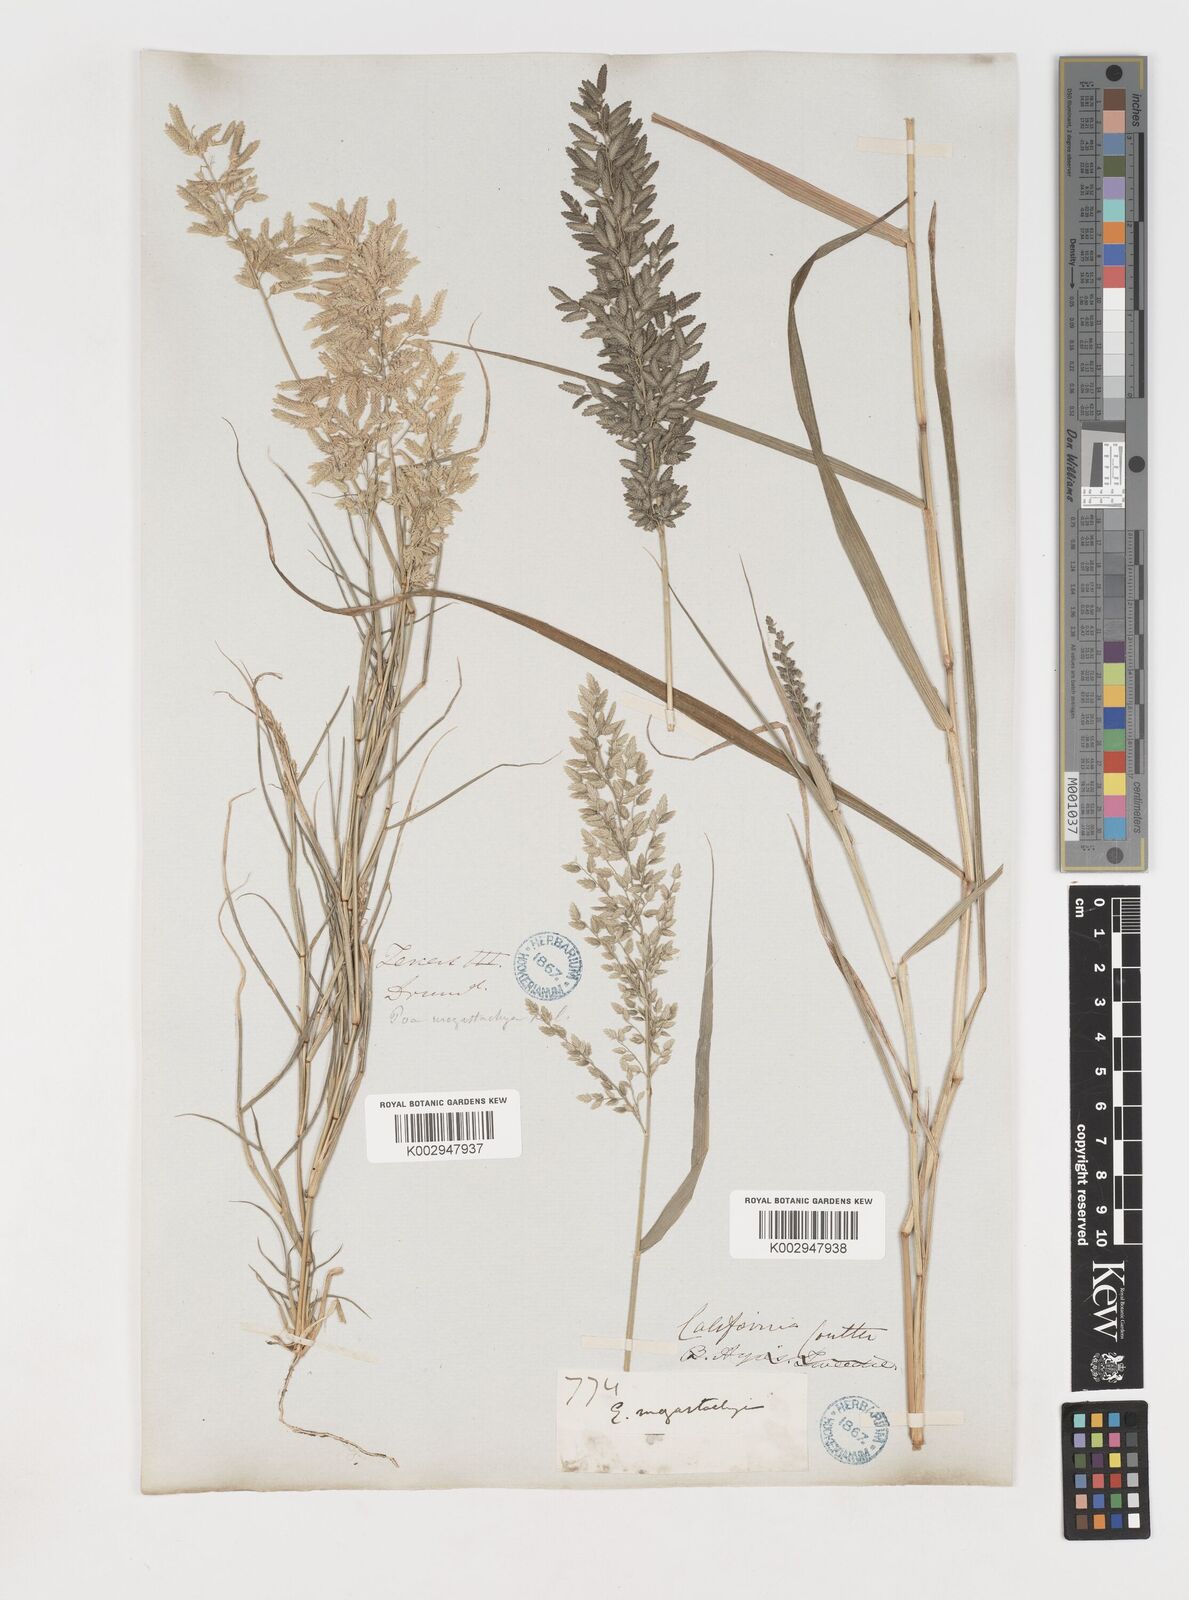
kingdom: Plantae
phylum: Tracheophyta
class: Liliopsida
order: Poales
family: Poaceae
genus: Eragrostis
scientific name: Eragrostis
